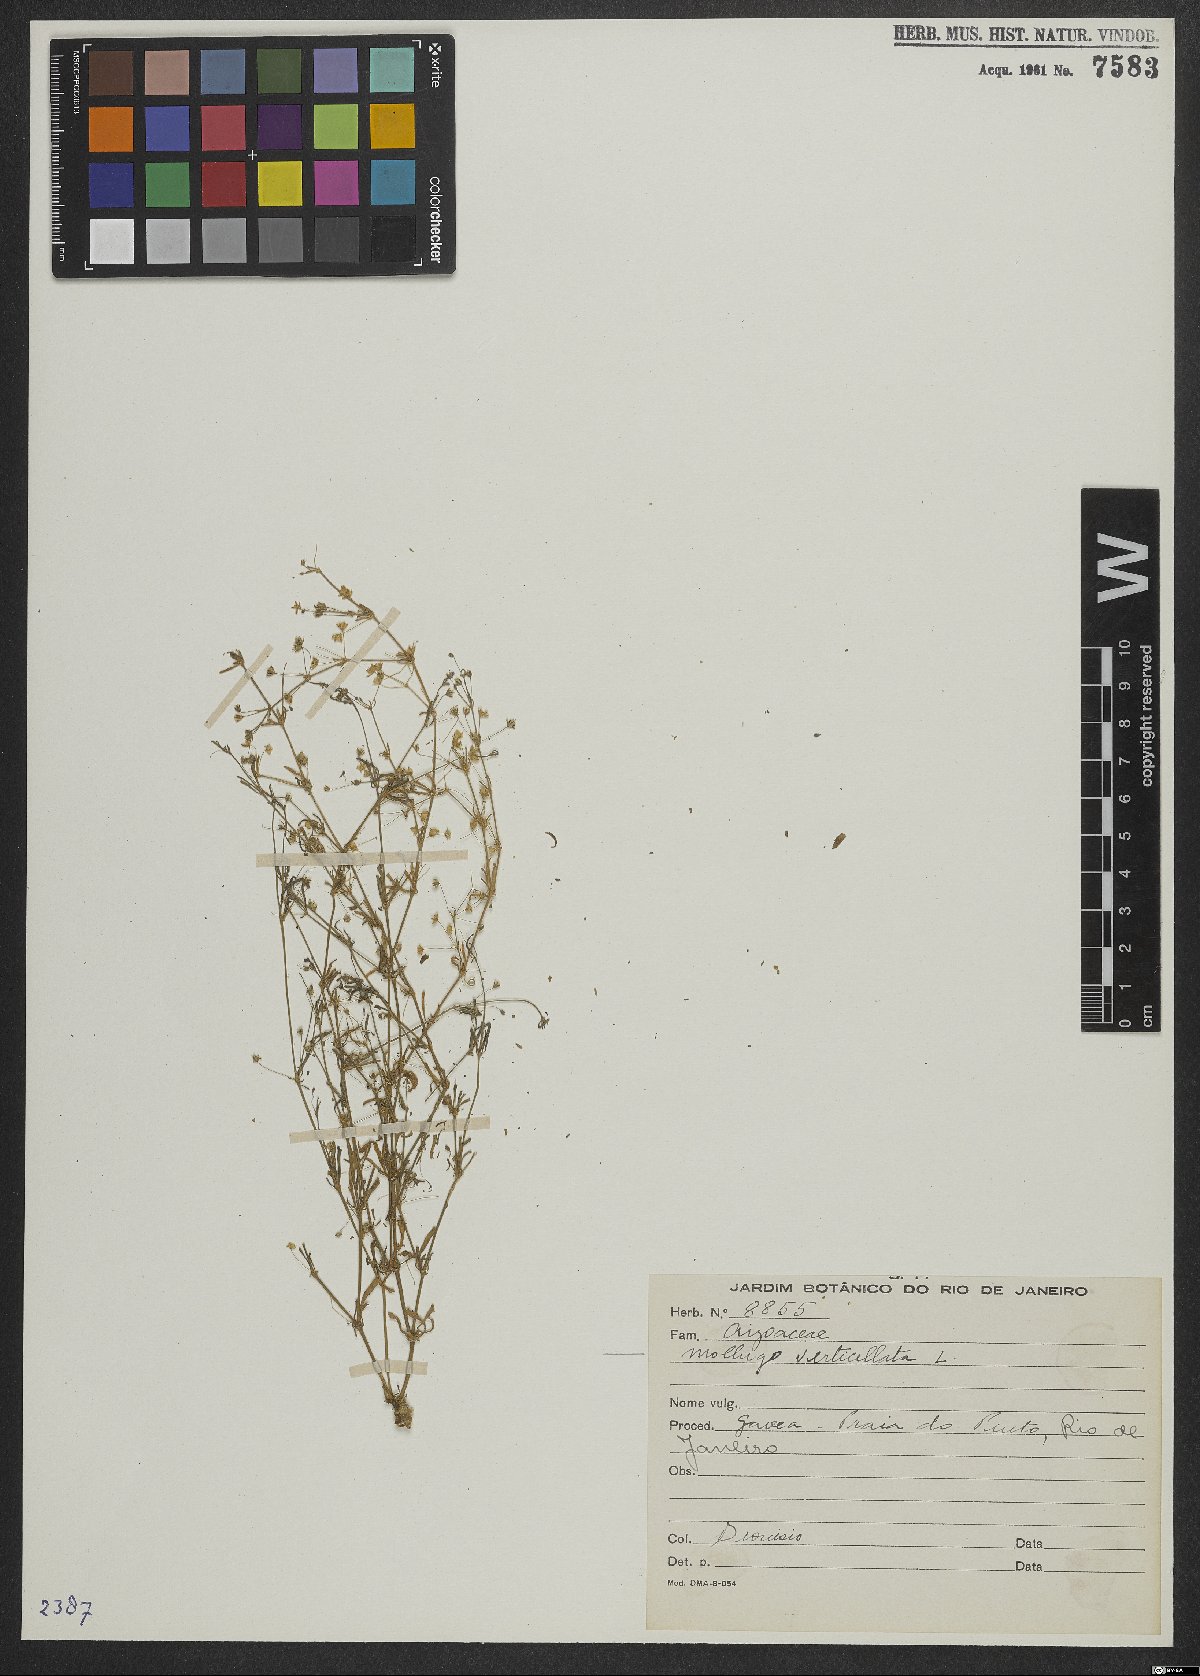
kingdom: Plantae
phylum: Tracheophyta
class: Magnoliopsida
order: Caryophyllales
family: Molluginaceae
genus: Mollugo
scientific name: Mollugo verticillata
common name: Green carpetweed
